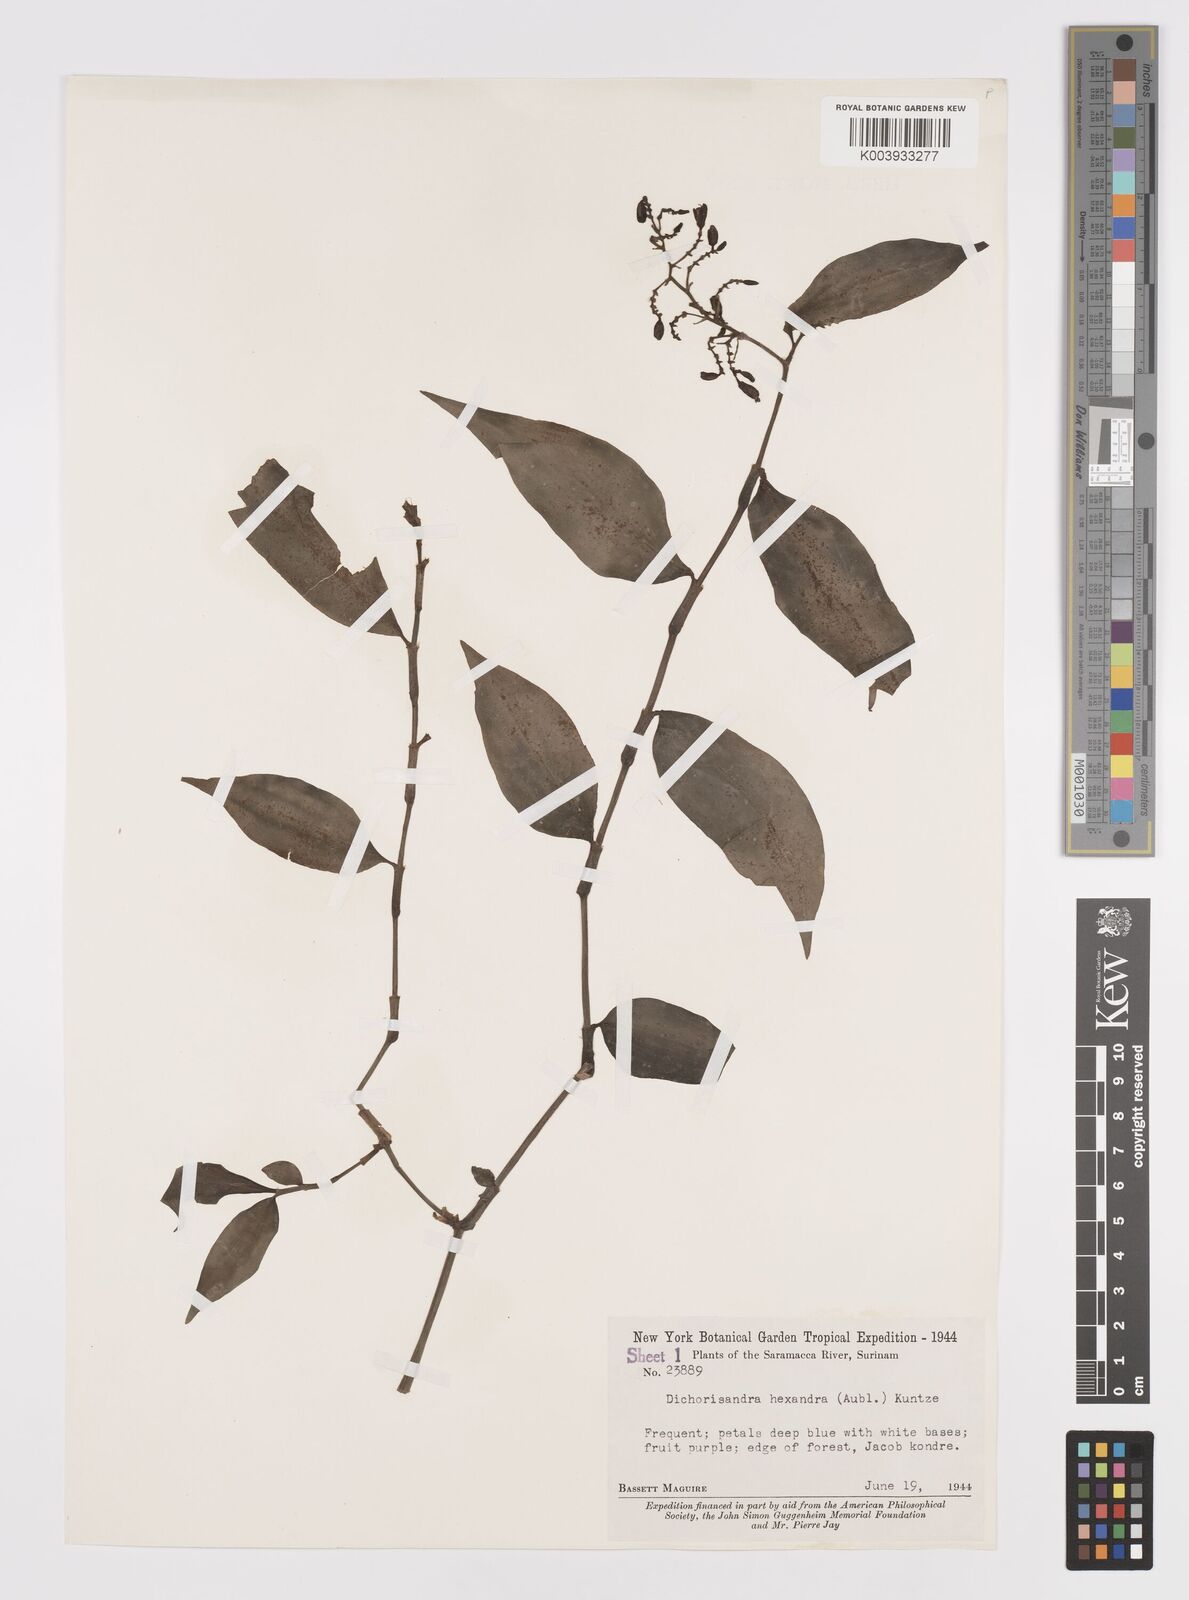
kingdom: Plantae
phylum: Tracheophyta
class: Liliopsida
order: Commelinales
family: Commelinaceae
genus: Dichorisandra
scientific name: Dichorisandra hexandra
